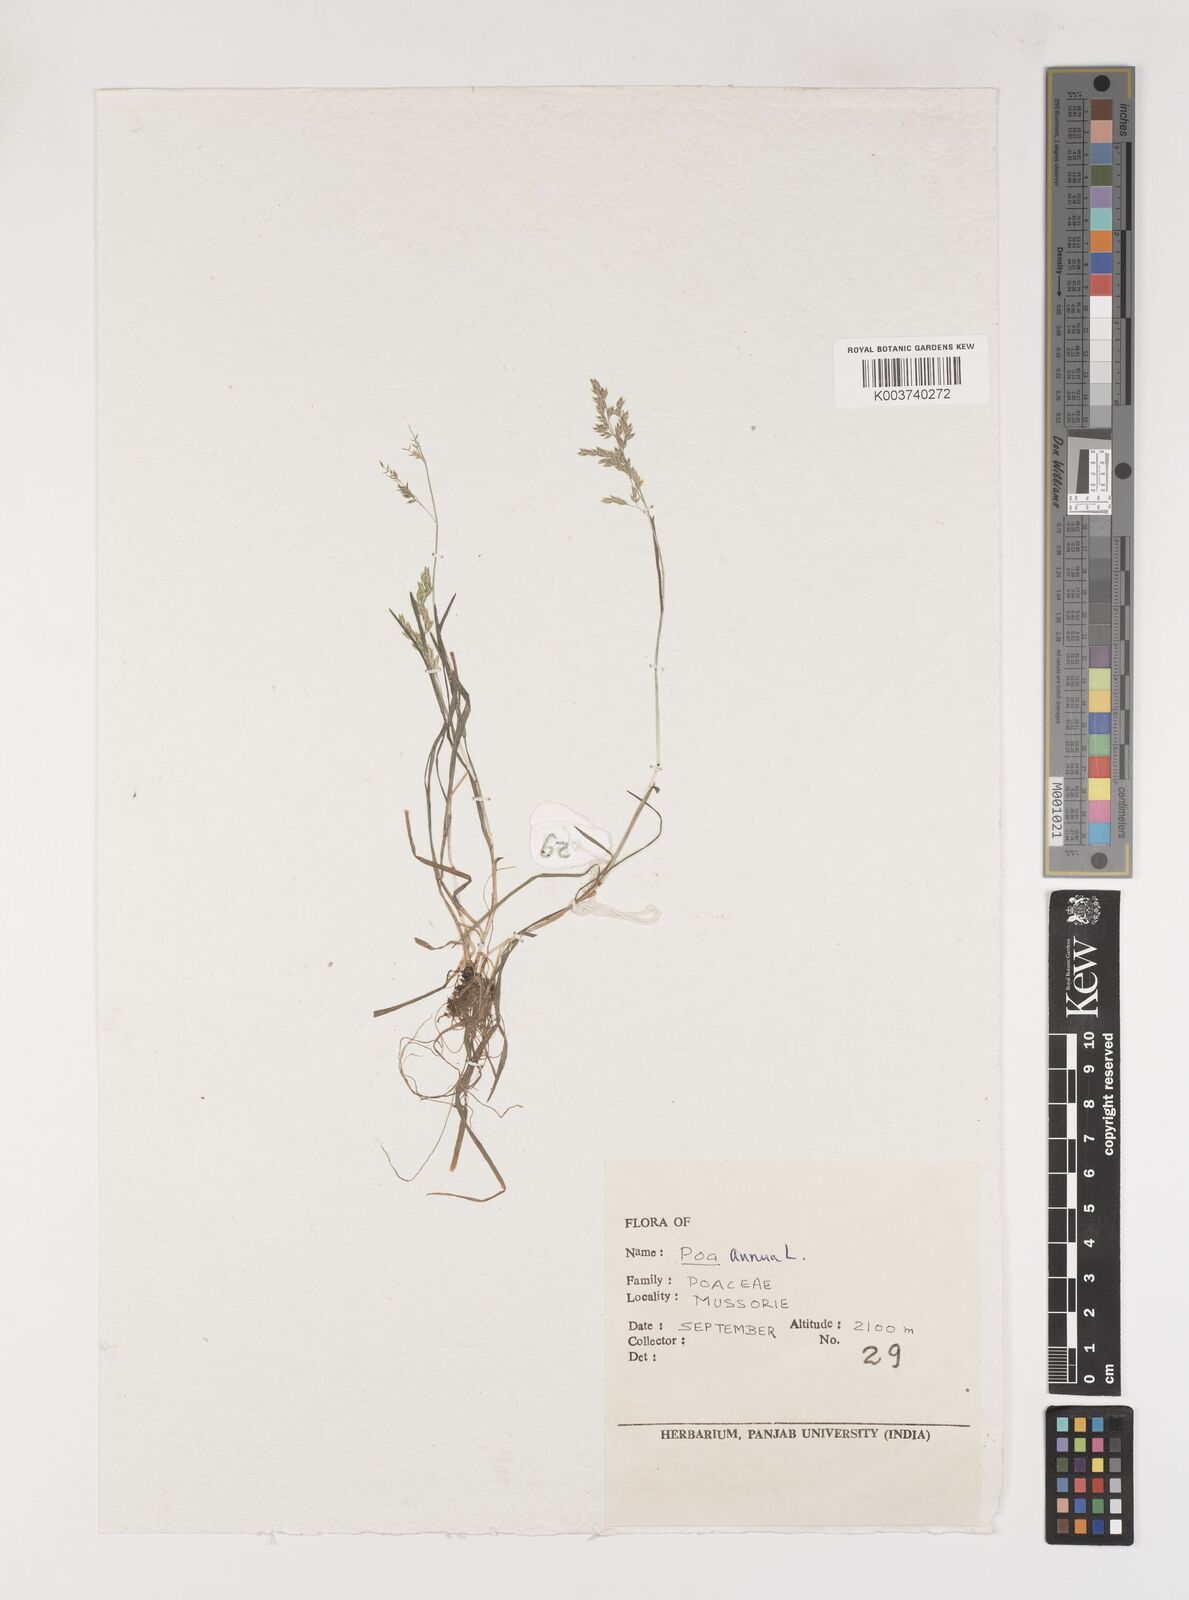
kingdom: Plantae
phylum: Tracheophyta
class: Liliopsida
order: Poales
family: Poaceae
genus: Poa
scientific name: Poa annua
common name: Annual bluegrass
